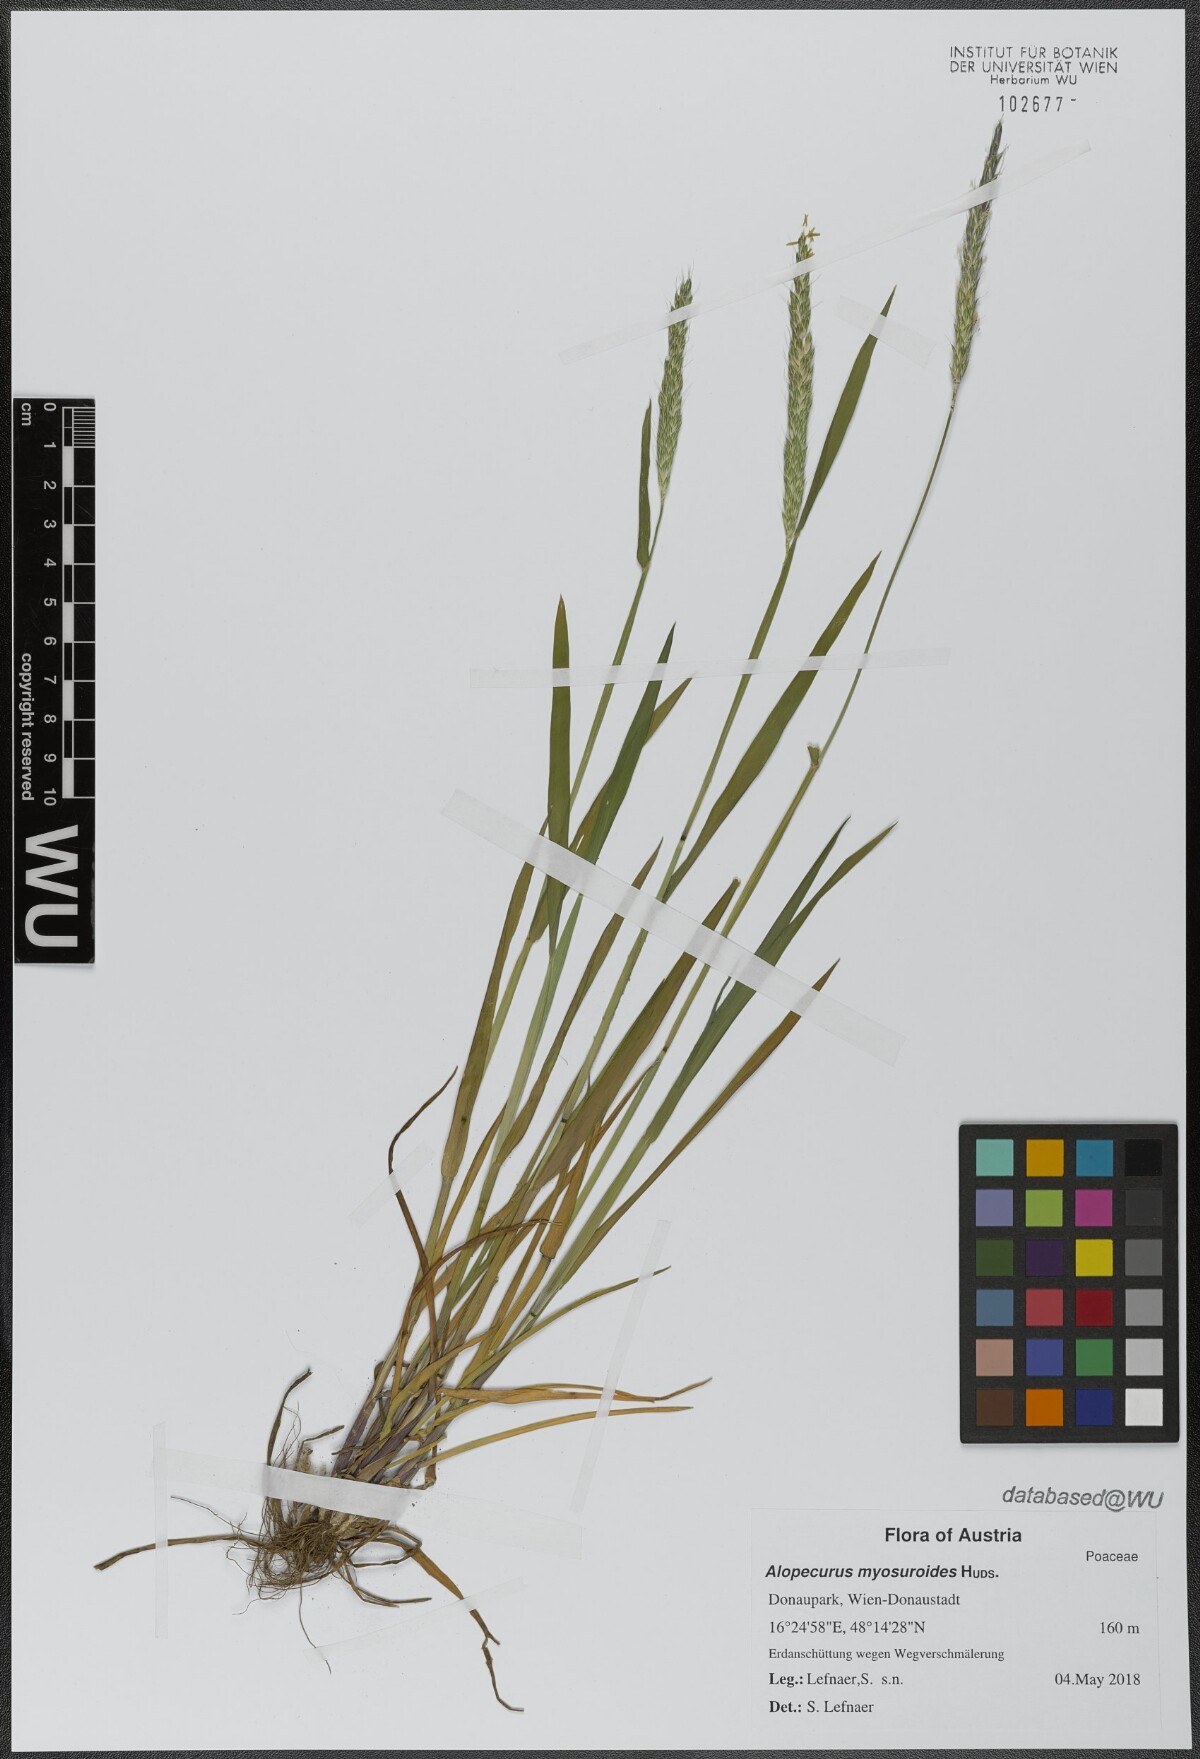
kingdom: Plantae
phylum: Tracheophyta
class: Liliopsida
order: Poales
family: Poaceae
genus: Alopecurus
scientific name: Alopecurus myosuroides
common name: Black-grass
